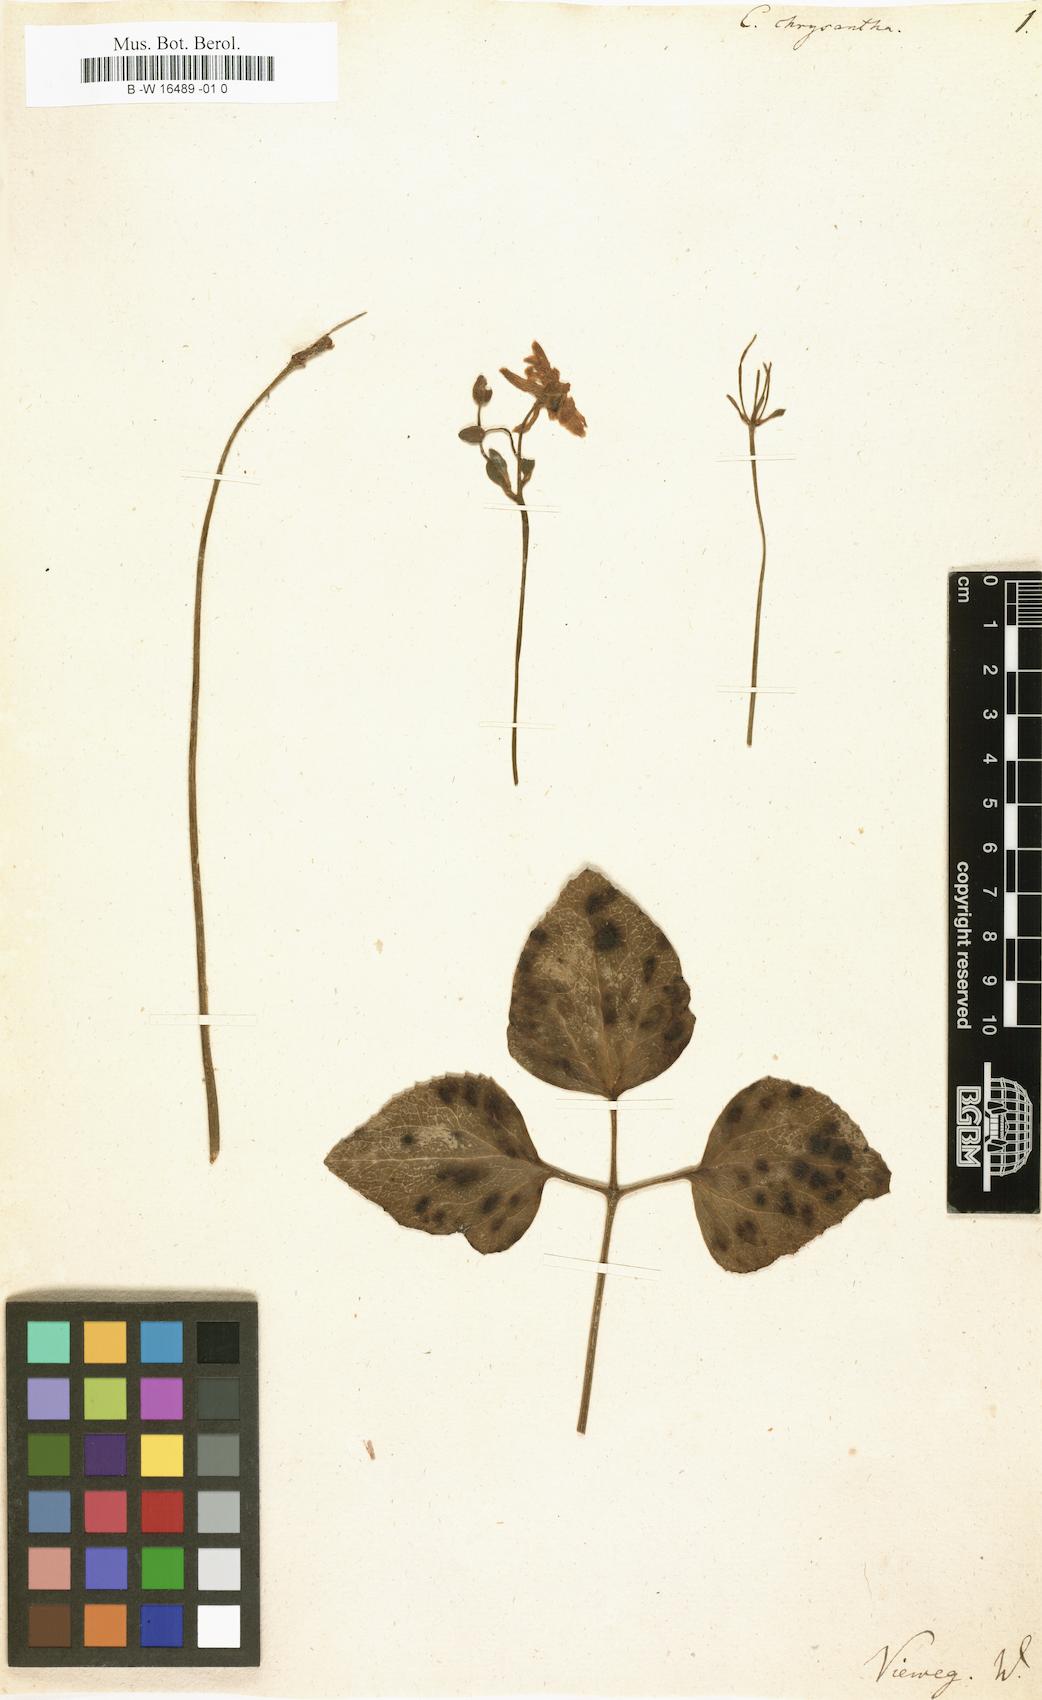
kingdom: Plantae
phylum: Tracheophyta
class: Magnoliopsida
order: Asterales
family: Asteraceae
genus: Bidens
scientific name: Bidens
